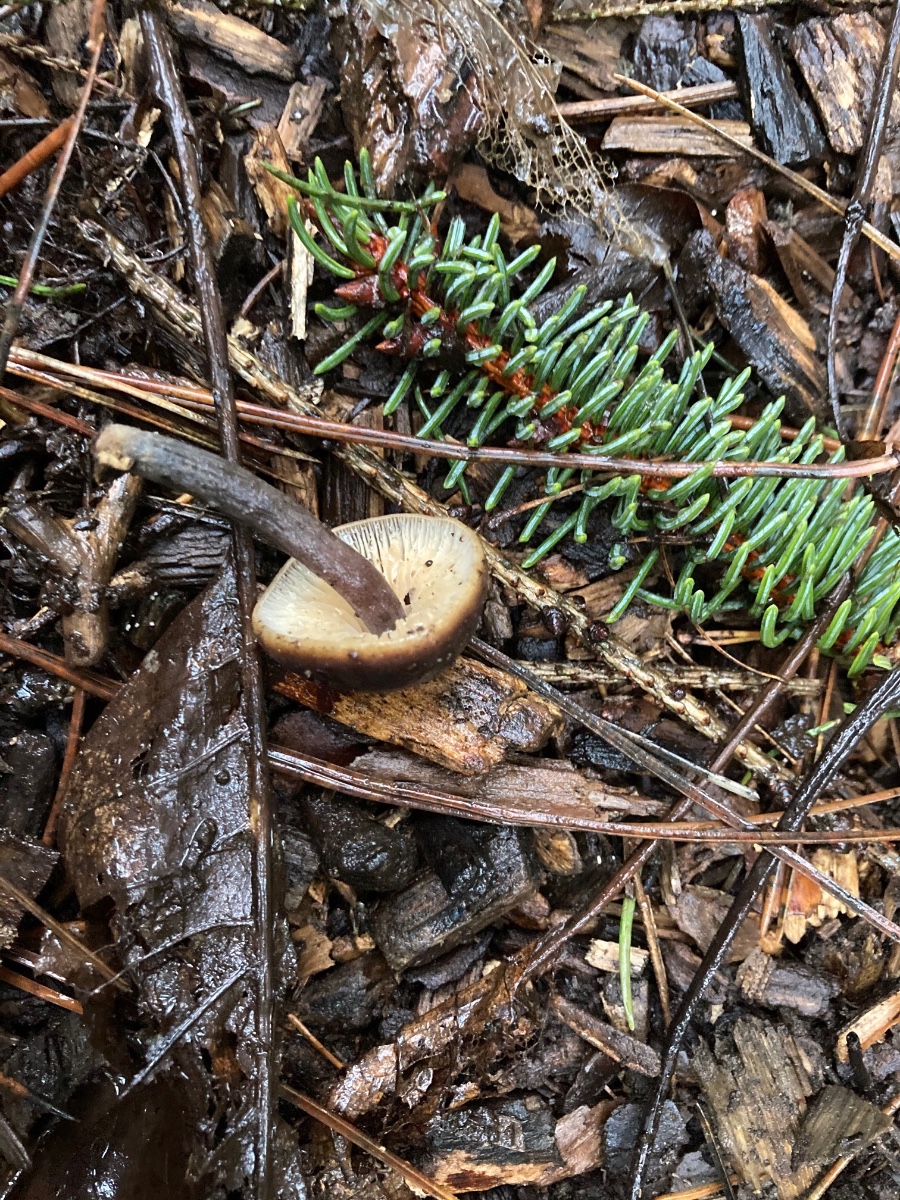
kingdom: Fungi
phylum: Basidiomycota
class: Agaricomycetes
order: Agaricales
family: Macrocystidiaceae
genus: Macrocystidia
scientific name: Macrocystidia cucumis
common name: agurkehat
